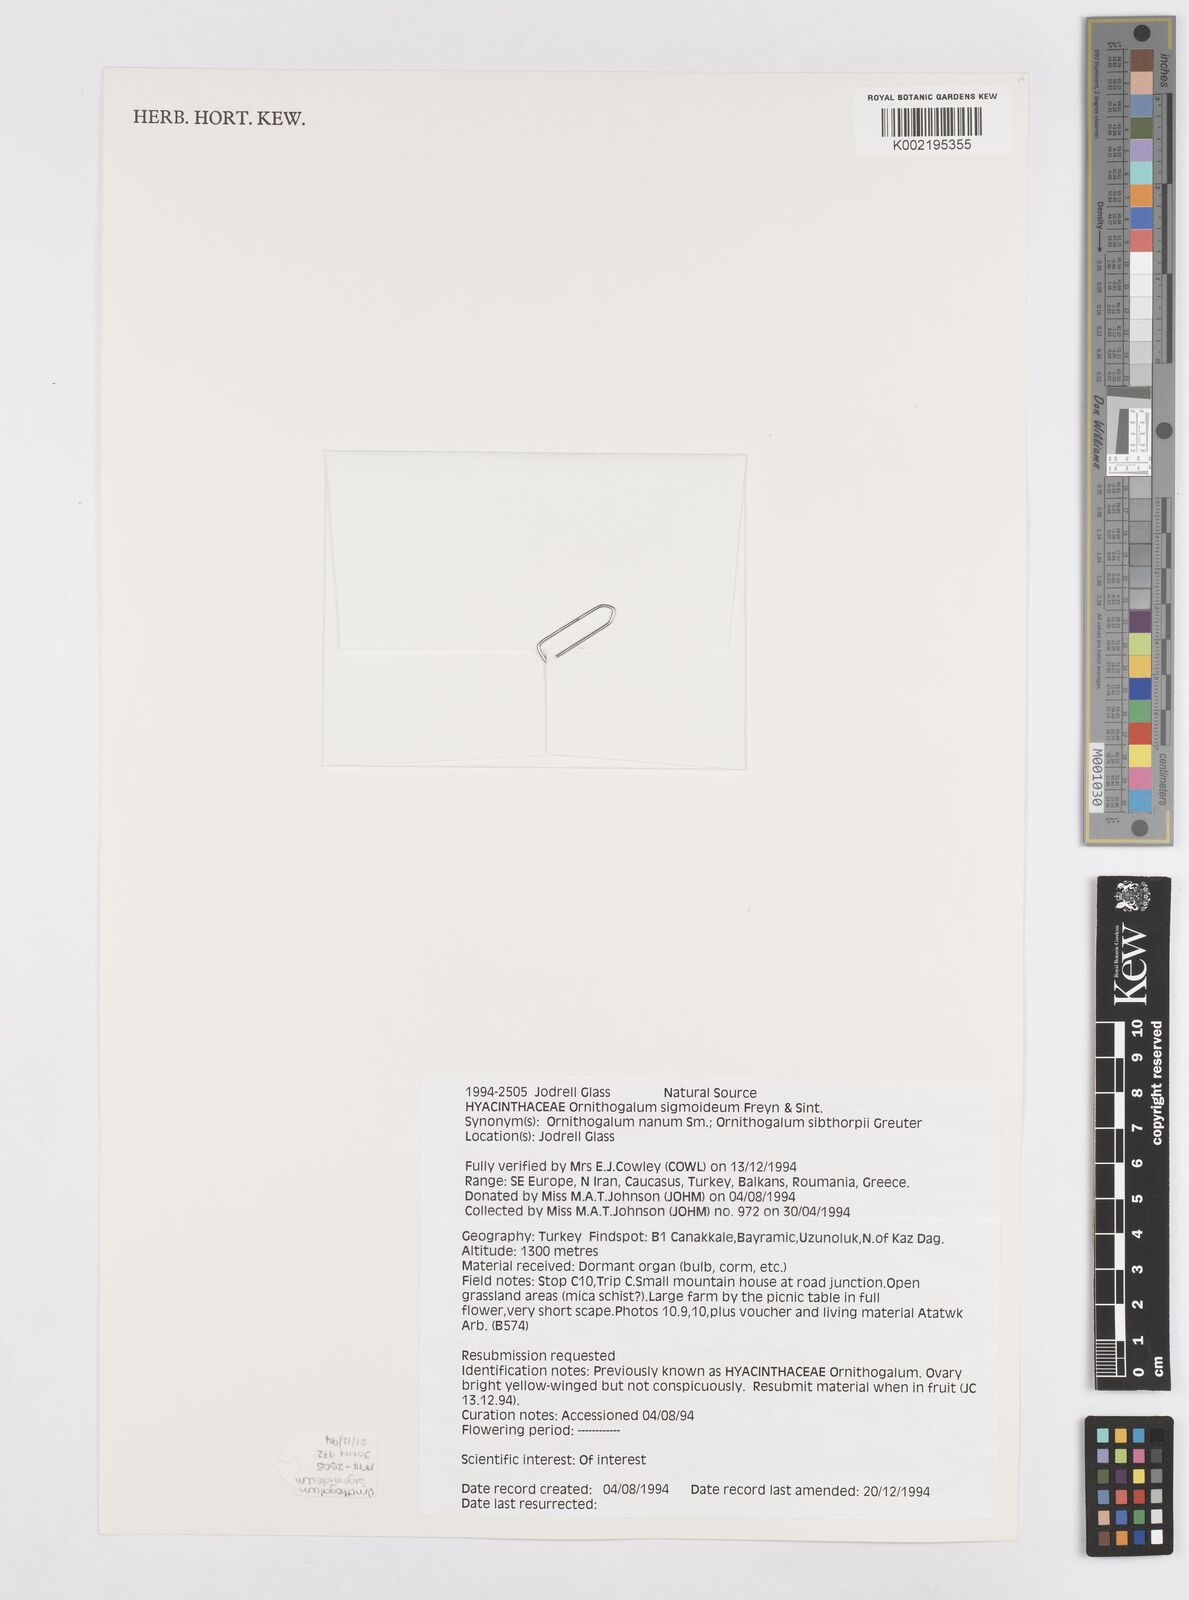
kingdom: Plantae
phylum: Tracheophyta
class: Liliopsida
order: Asparagales
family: Asparagaceae
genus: Ornithogalum
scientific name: Ornithogalum sigmoideum
